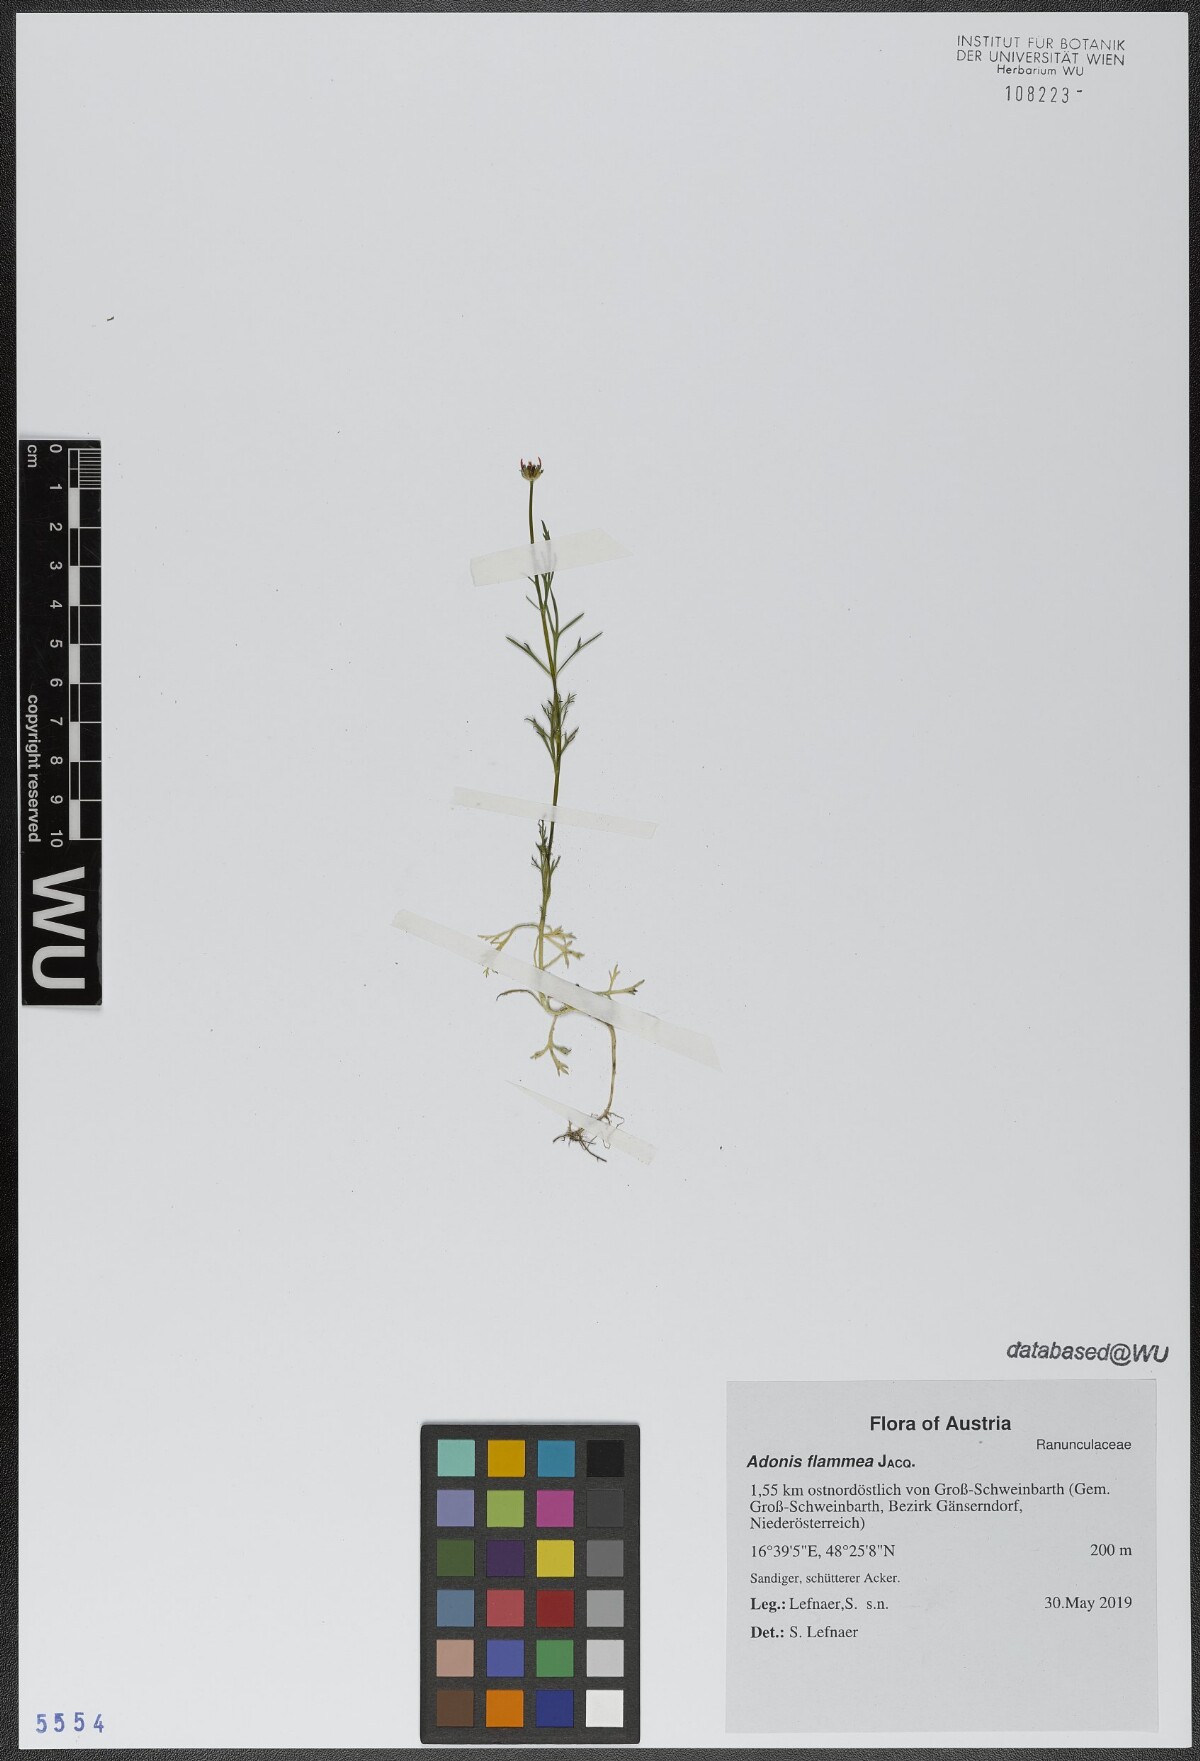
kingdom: Plantae
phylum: Tracheophyta
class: Magnoliopsida
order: Ranunculales
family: Ranunculaceae
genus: Adonis
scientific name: Adonis flammea
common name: Large pheasant's-eye
